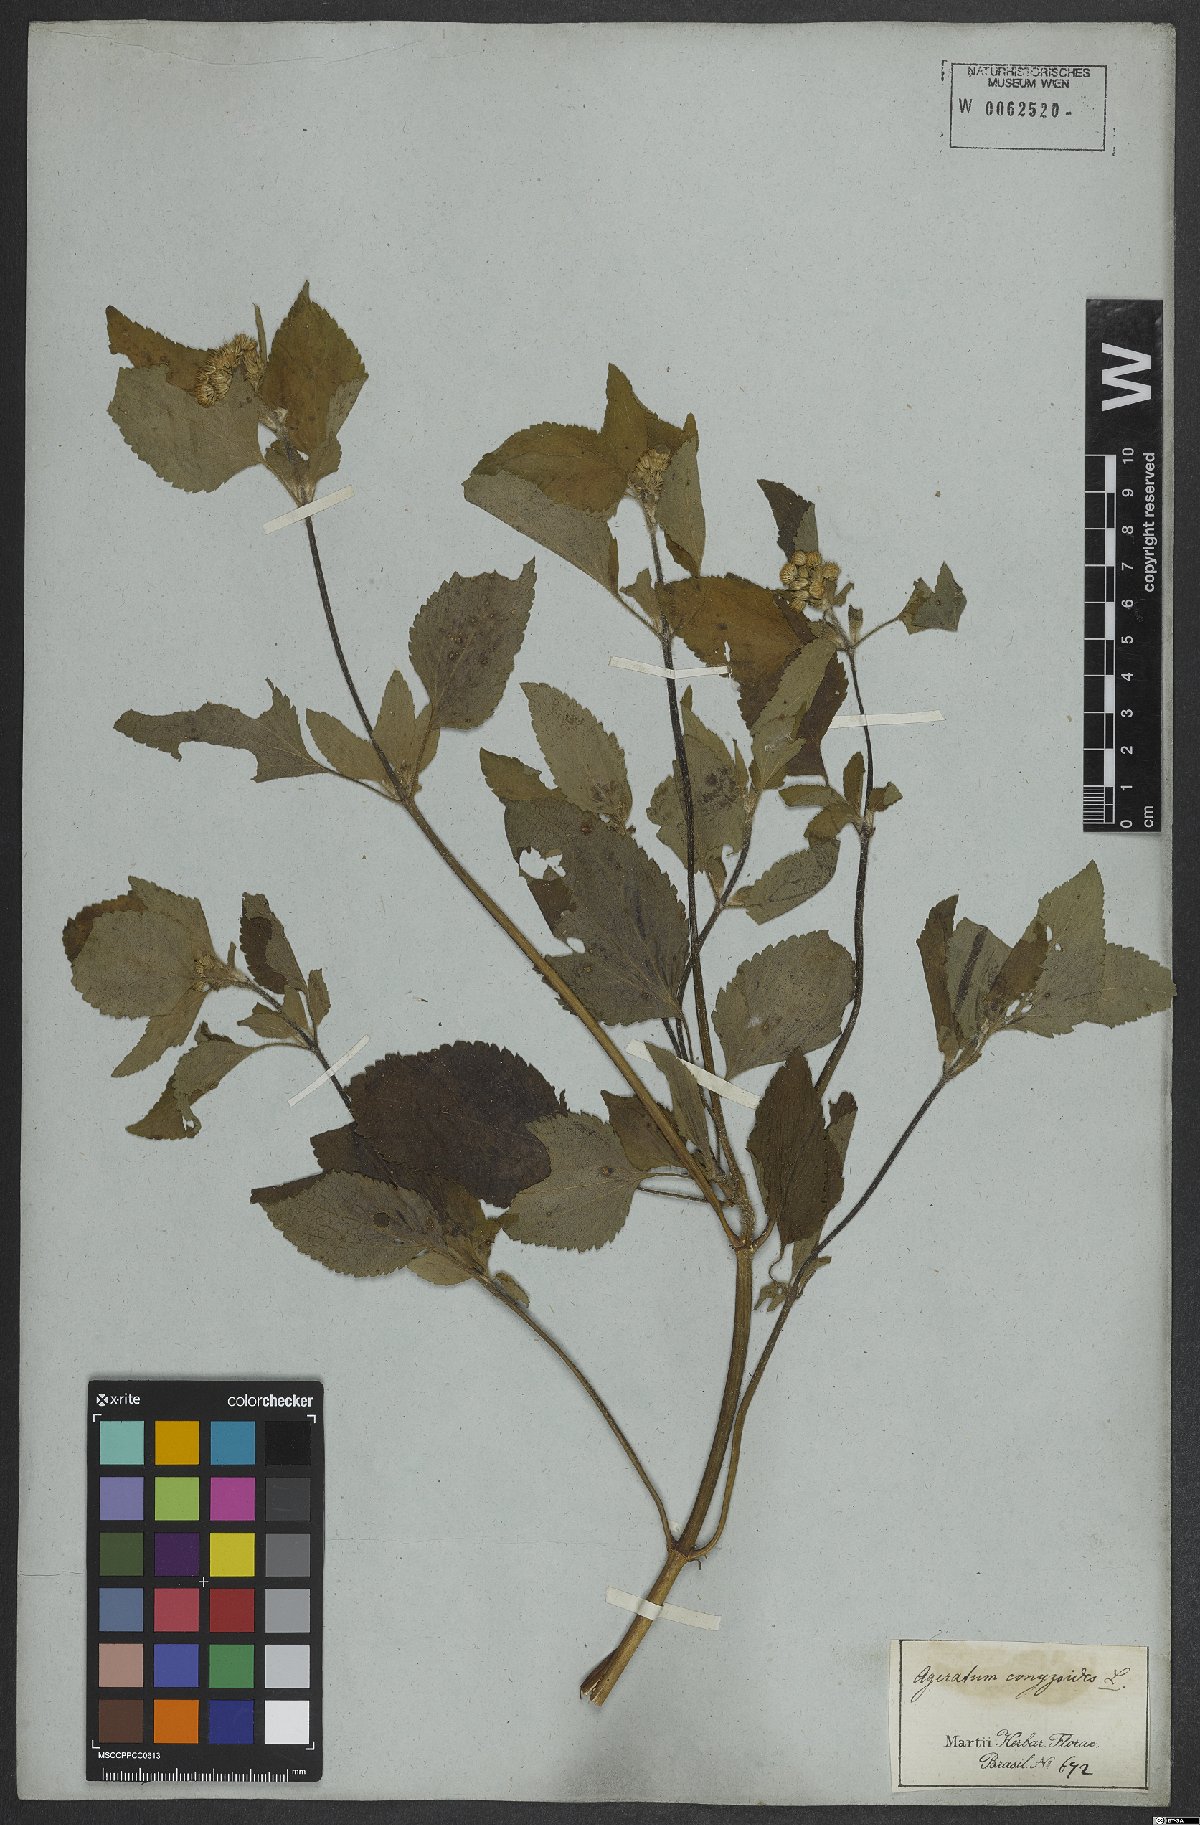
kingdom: Plantae
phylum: Tracheophyta
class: Magnoliopsida
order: Asterales
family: Asteraceae
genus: Ageratum
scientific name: Ageratum conyzoides
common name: Tropical whiteweed
